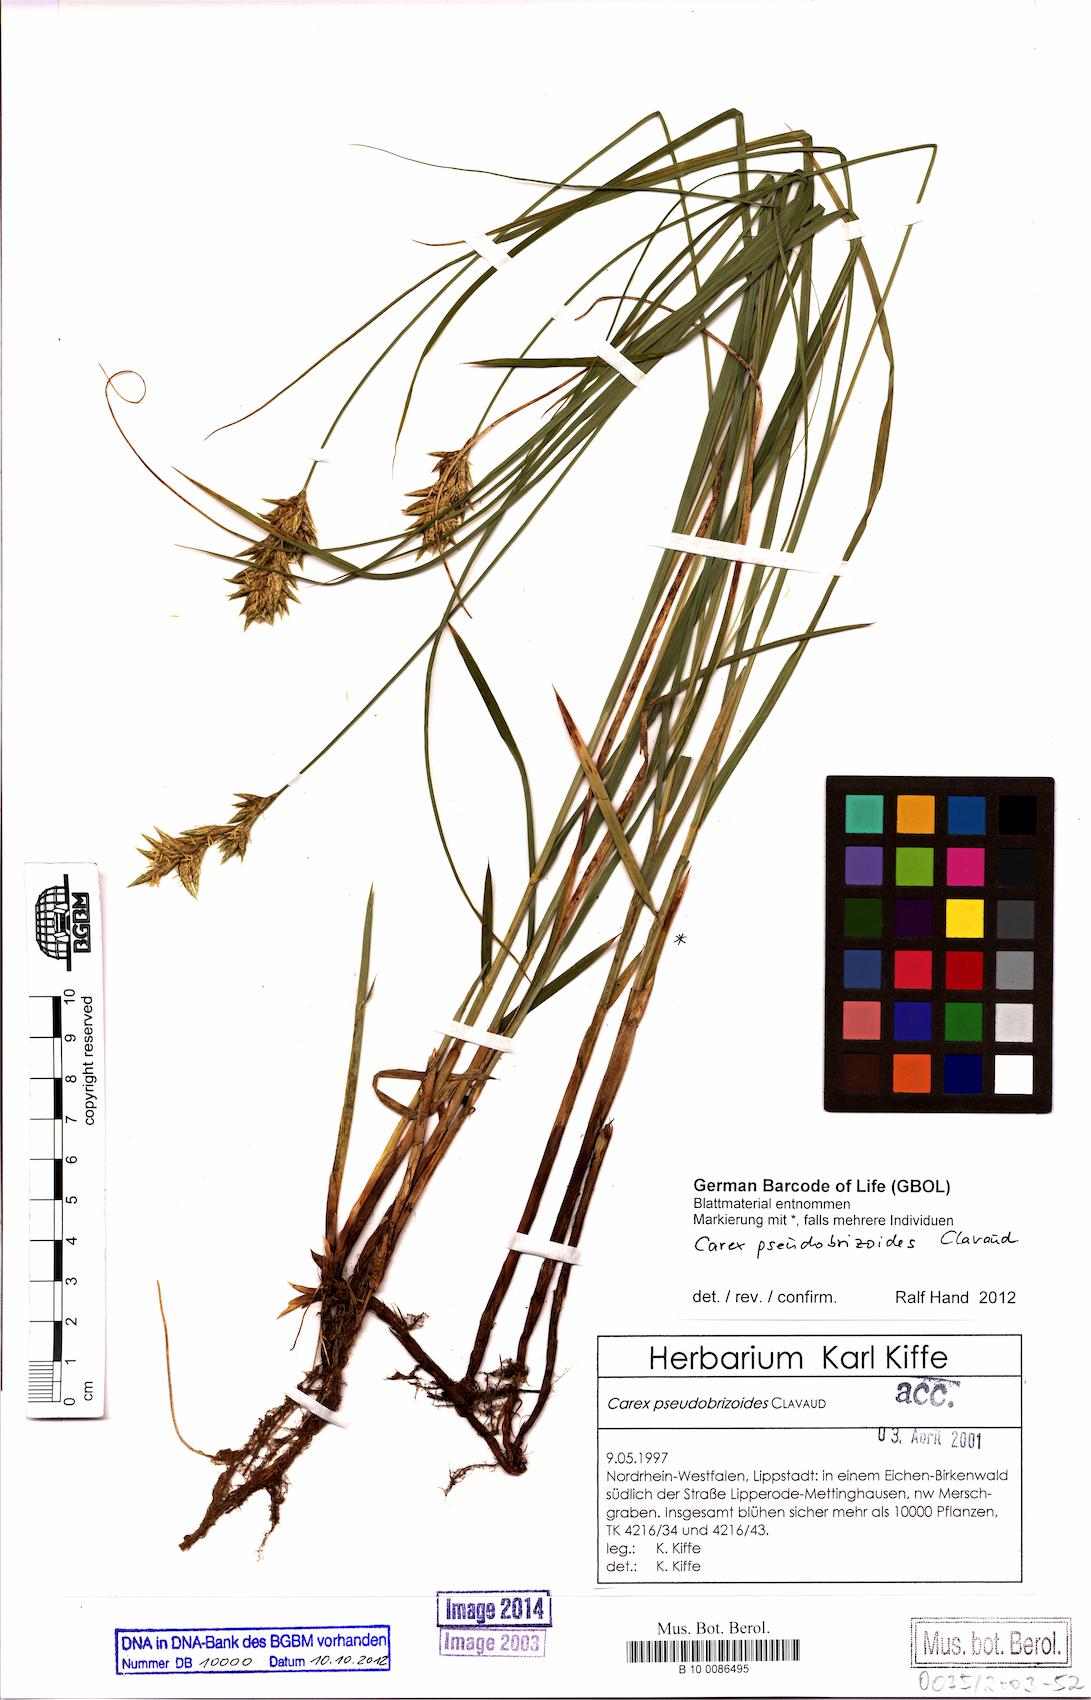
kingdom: Plantae
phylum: Tracheophyta
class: Liliopsida
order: Poales
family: Cyperaceae
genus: Carex
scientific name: Carex pseudobrizoides
